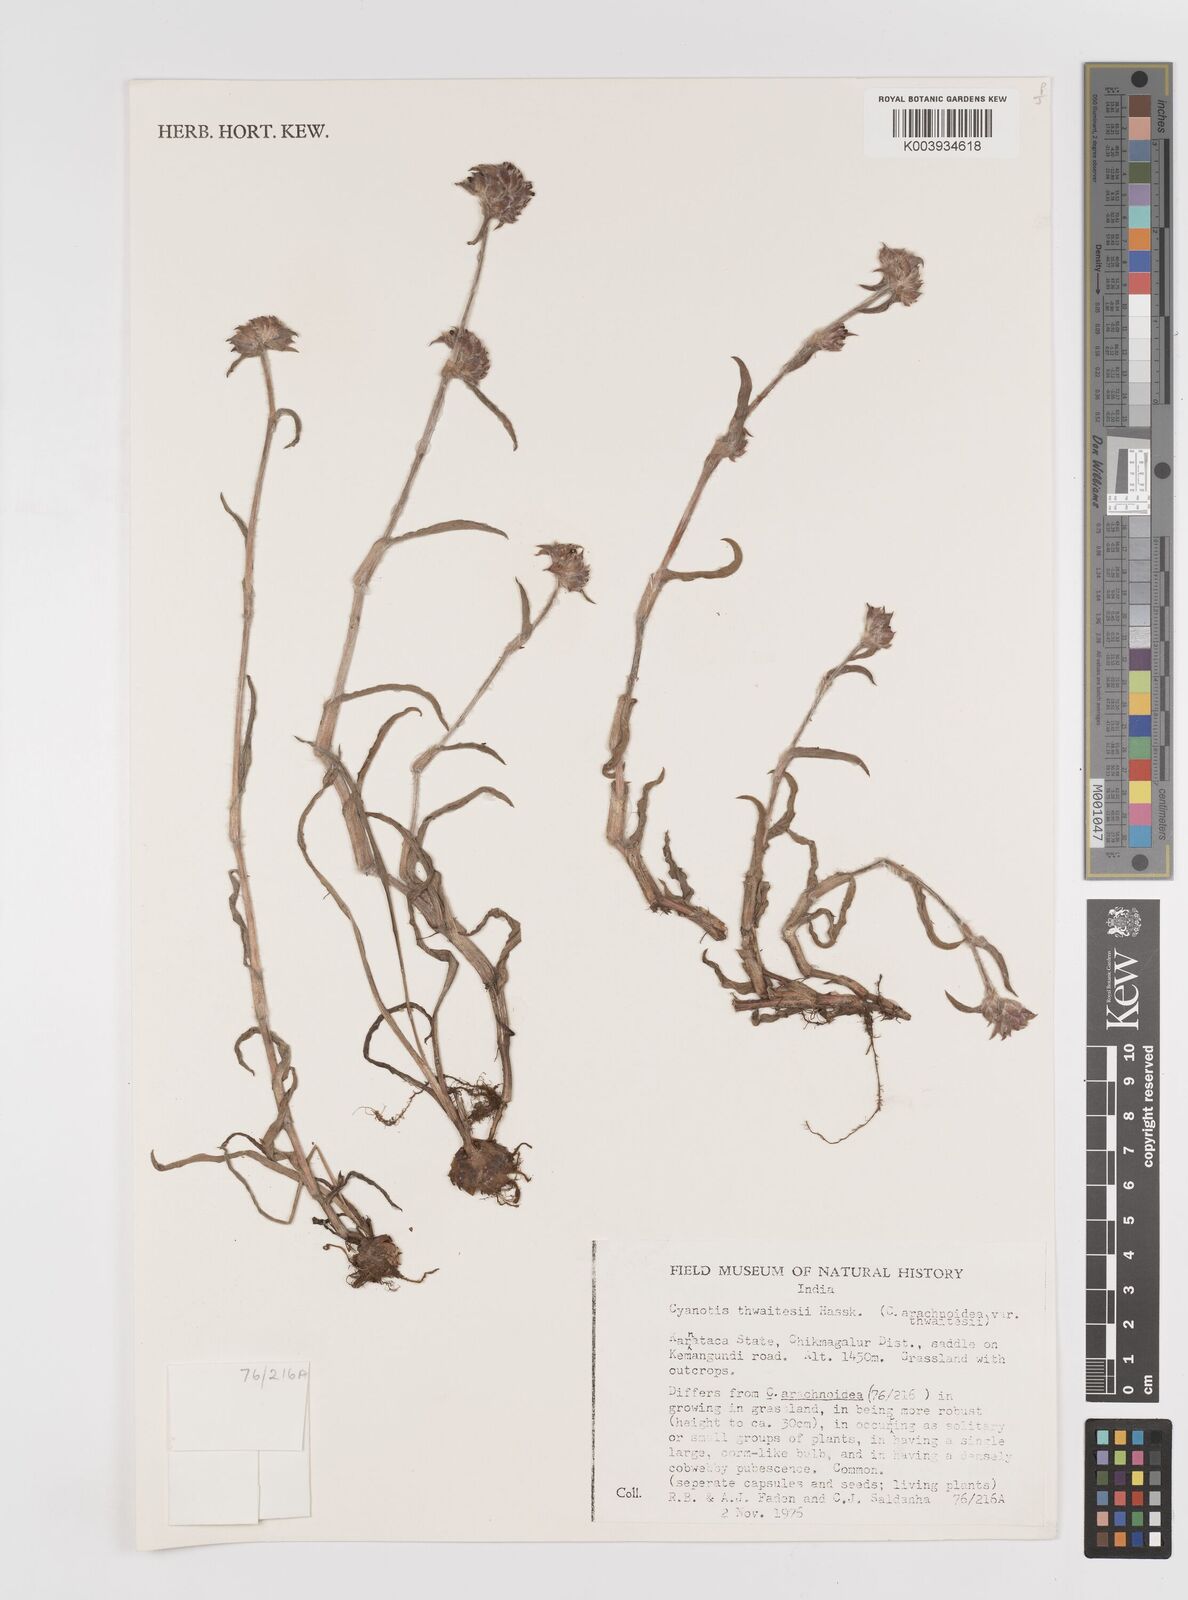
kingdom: Plantae
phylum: Tracheophyta
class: Liliopsida
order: Commelinales
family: Commelinaceae
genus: Cyanotis
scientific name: Cyanotis arachnoidea
